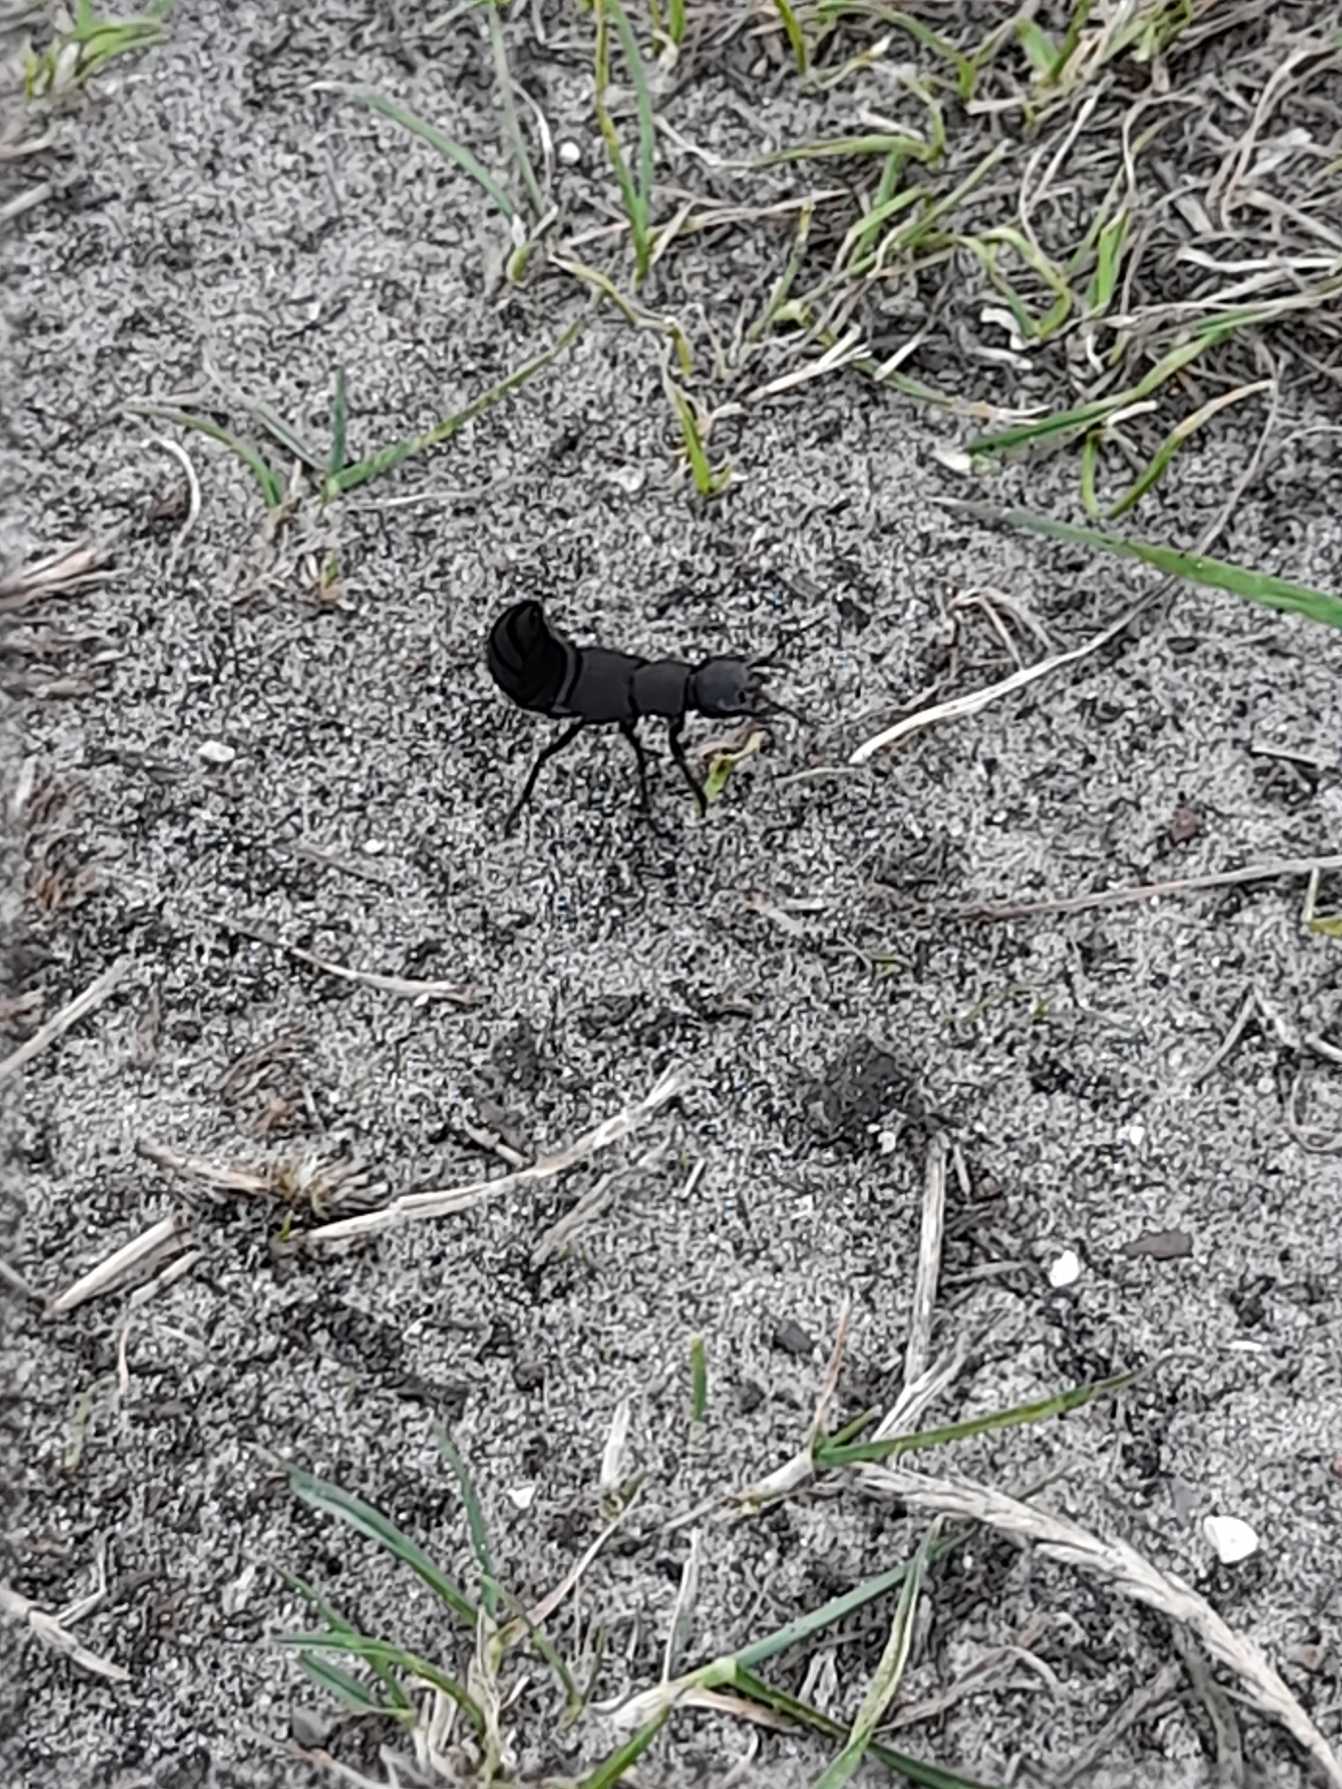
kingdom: Animalia
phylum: Arthropoda
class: Insecta
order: Coleoptera
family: Staphylinidae
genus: Ocypus
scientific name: Ocypus olens
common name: Stor rovbille
